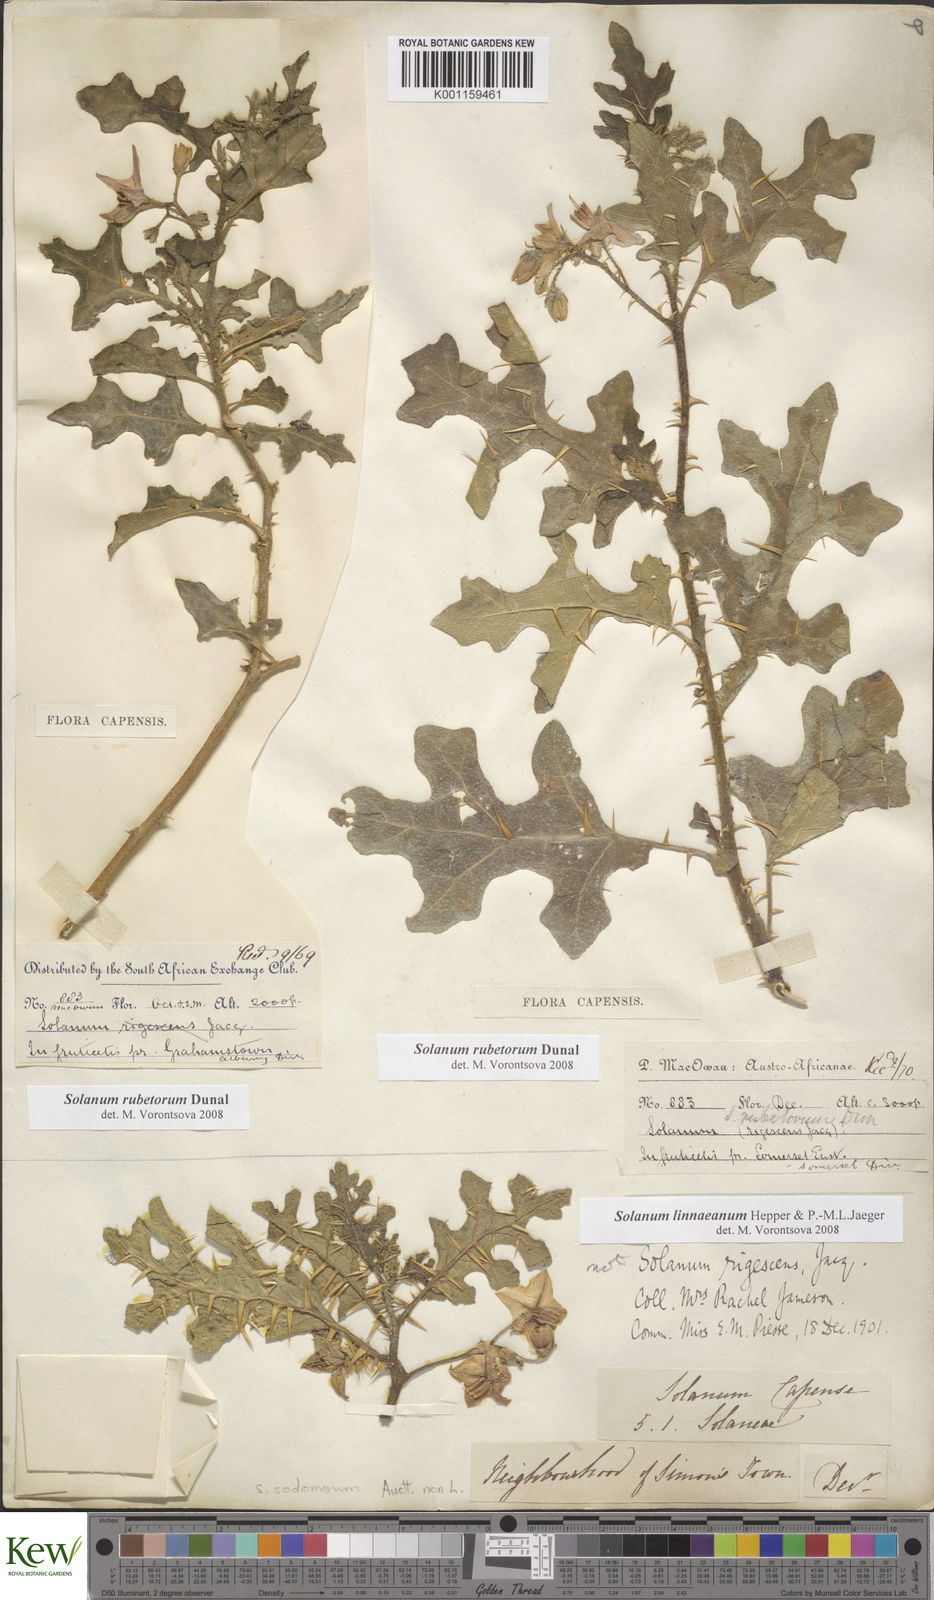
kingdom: Plantae
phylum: Tracheophyta
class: Magnoliopsida
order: Solanales
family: Solanaceae
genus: Solanum
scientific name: Solanum rubetorum
